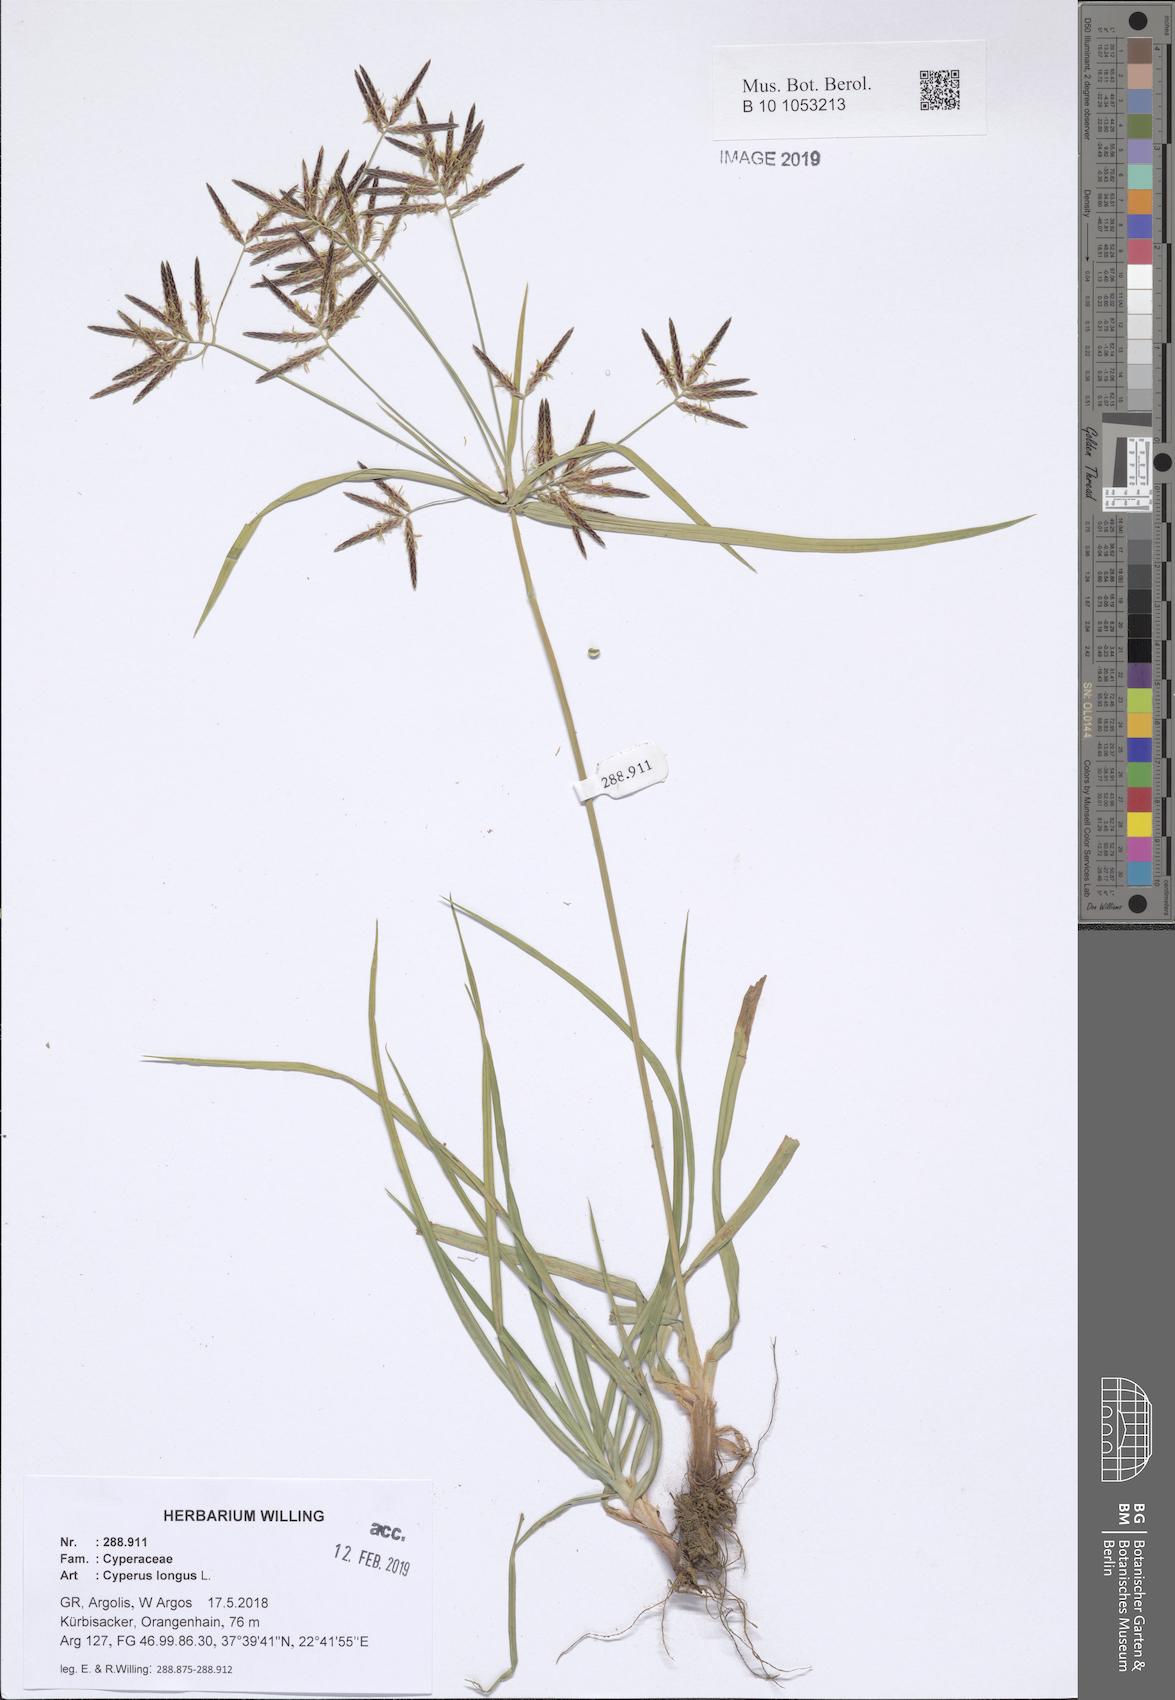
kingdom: Plantae
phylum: Tracheophyta
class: Liliopsida
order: Poales
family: Cyperaceae
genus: Cyperus
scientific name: Cyperus longus
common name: Galingale
